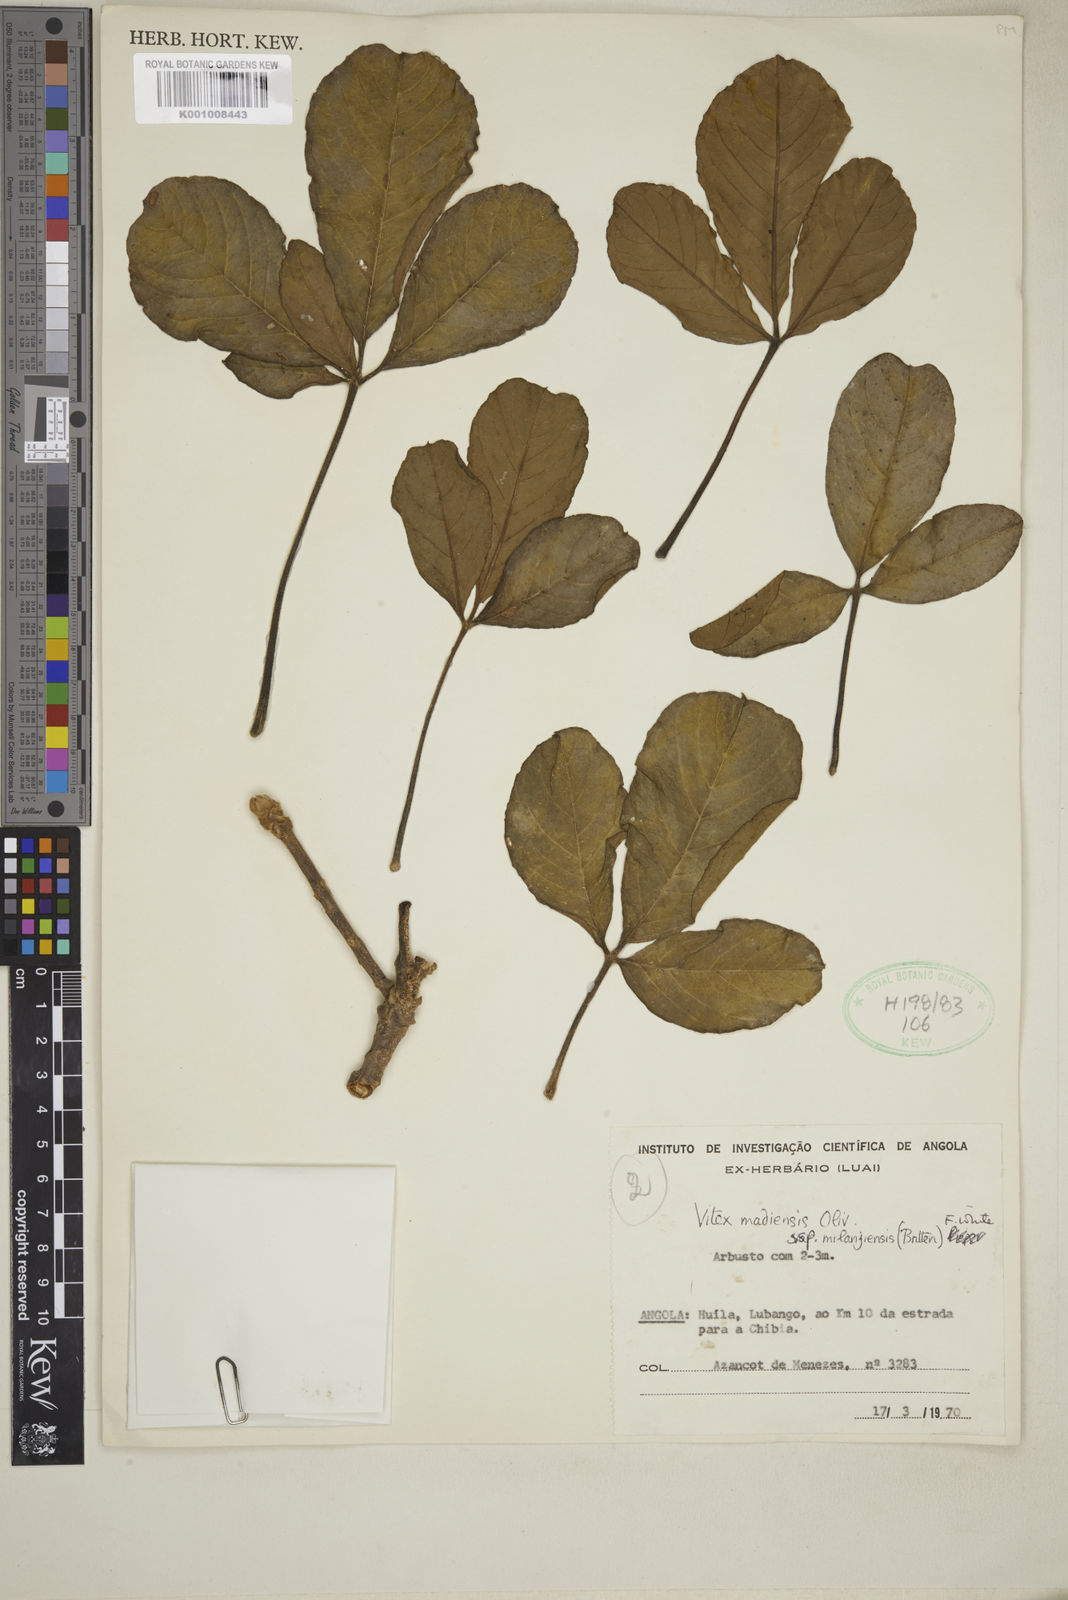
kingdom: Plantae
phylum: Tracheophyta
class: Magnoliopsida
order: Lamiales
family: Lamiaceae
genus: Vitex
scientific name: Vitex madiensis
